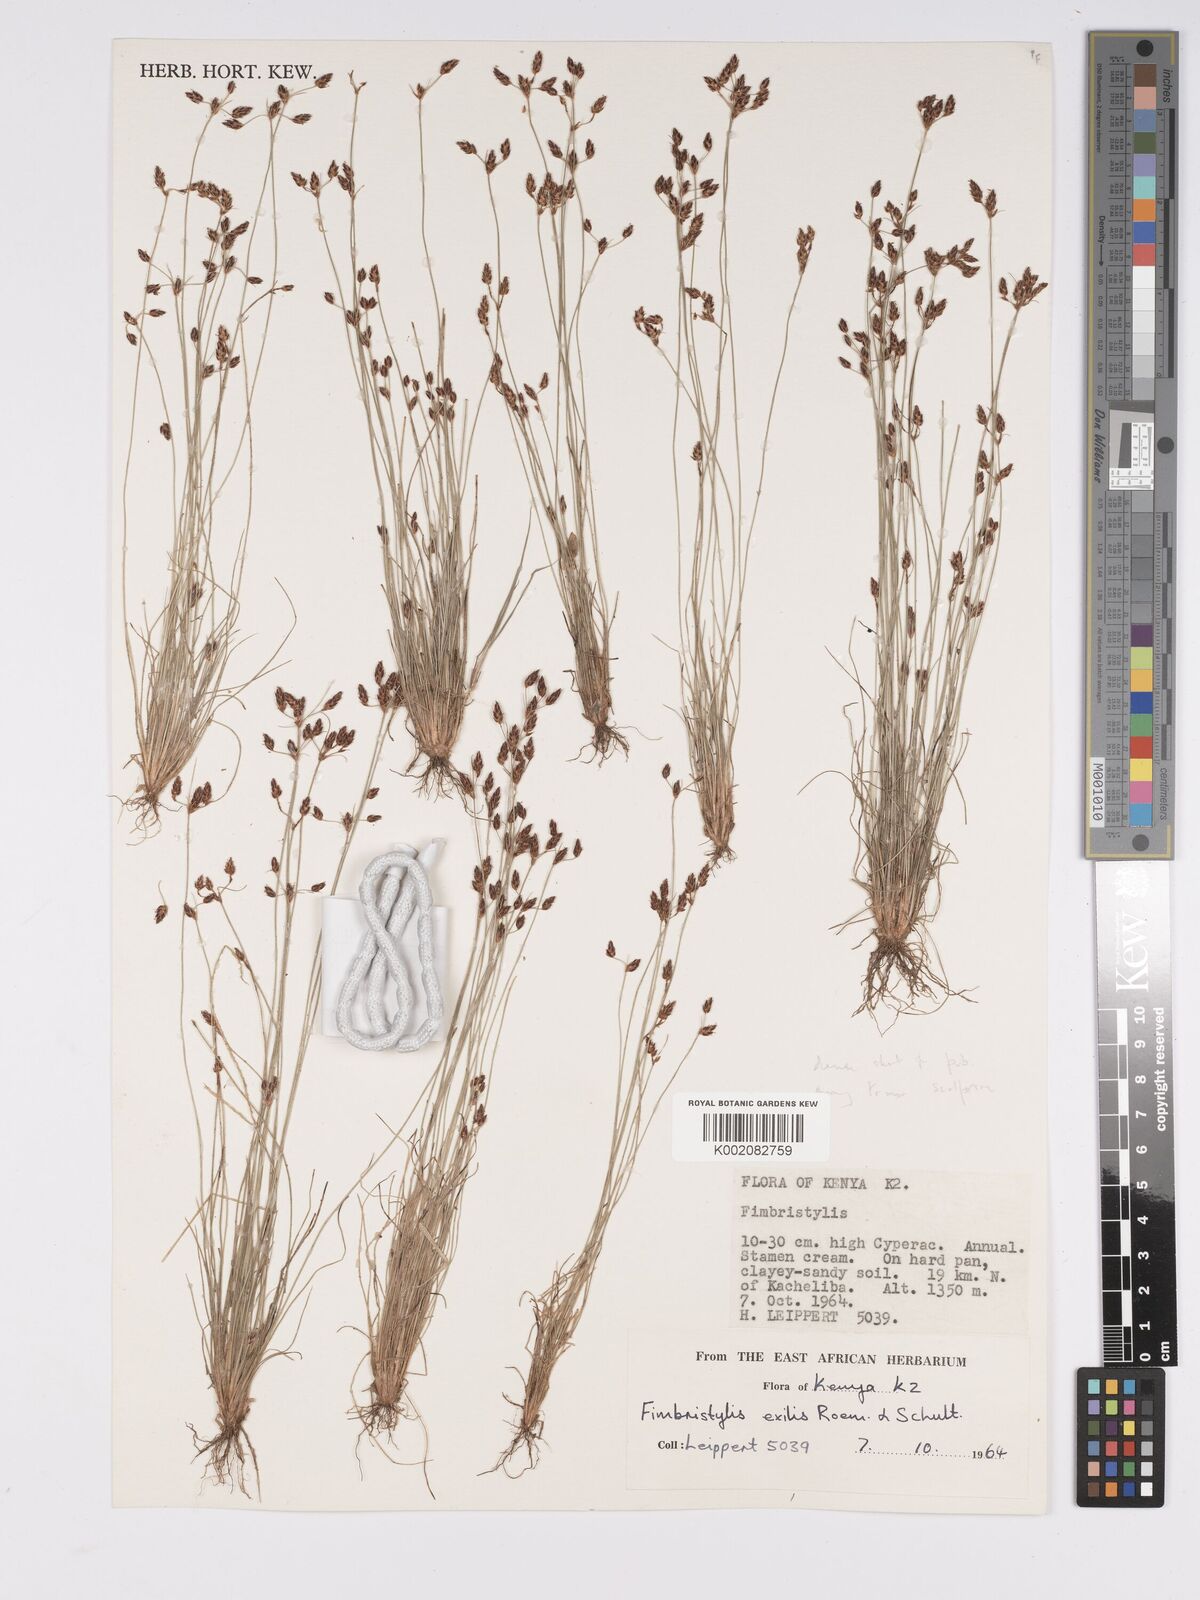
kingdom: Plantae
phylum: Tracheophyta
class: Liliopsida
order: Poales
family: Cyperaceae
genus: Bulbostylis
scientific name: Bulbostylis hispidula
